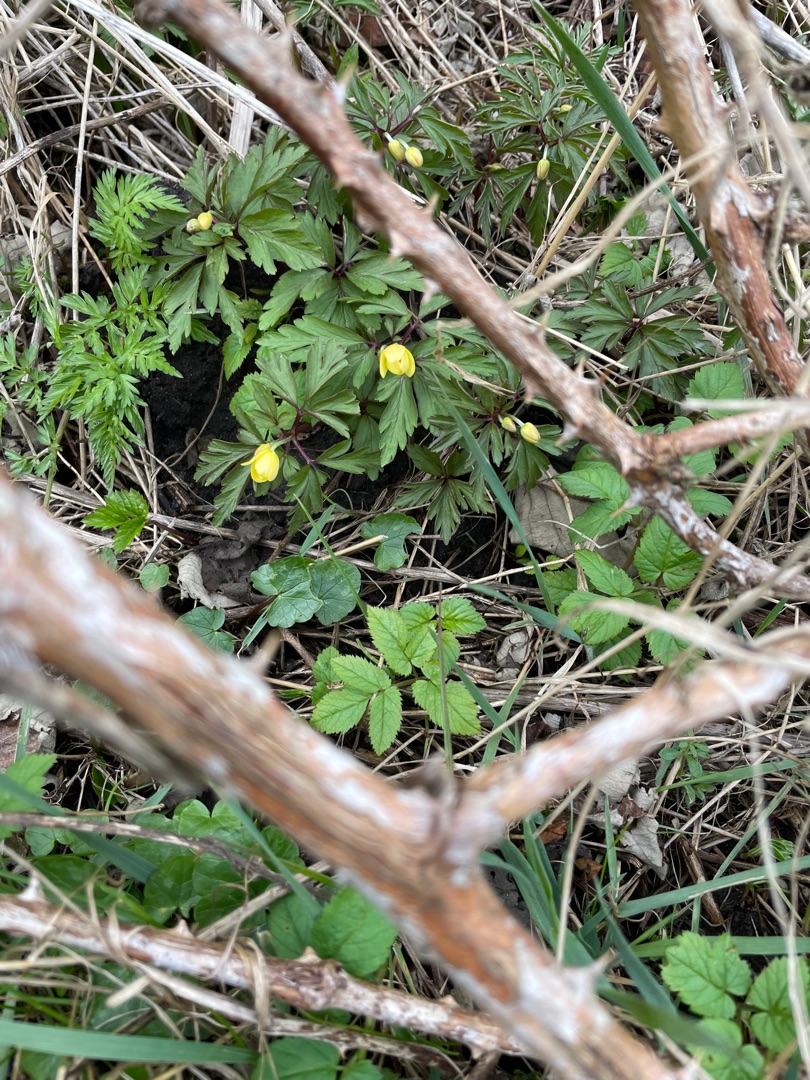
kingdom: Plantae
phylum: Tracheophyta
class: Magnoliopsida
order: Ranunculales
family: Ranunculaceae
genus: Anemone
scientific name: Anemone ranunculoides
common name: Gul anemone
